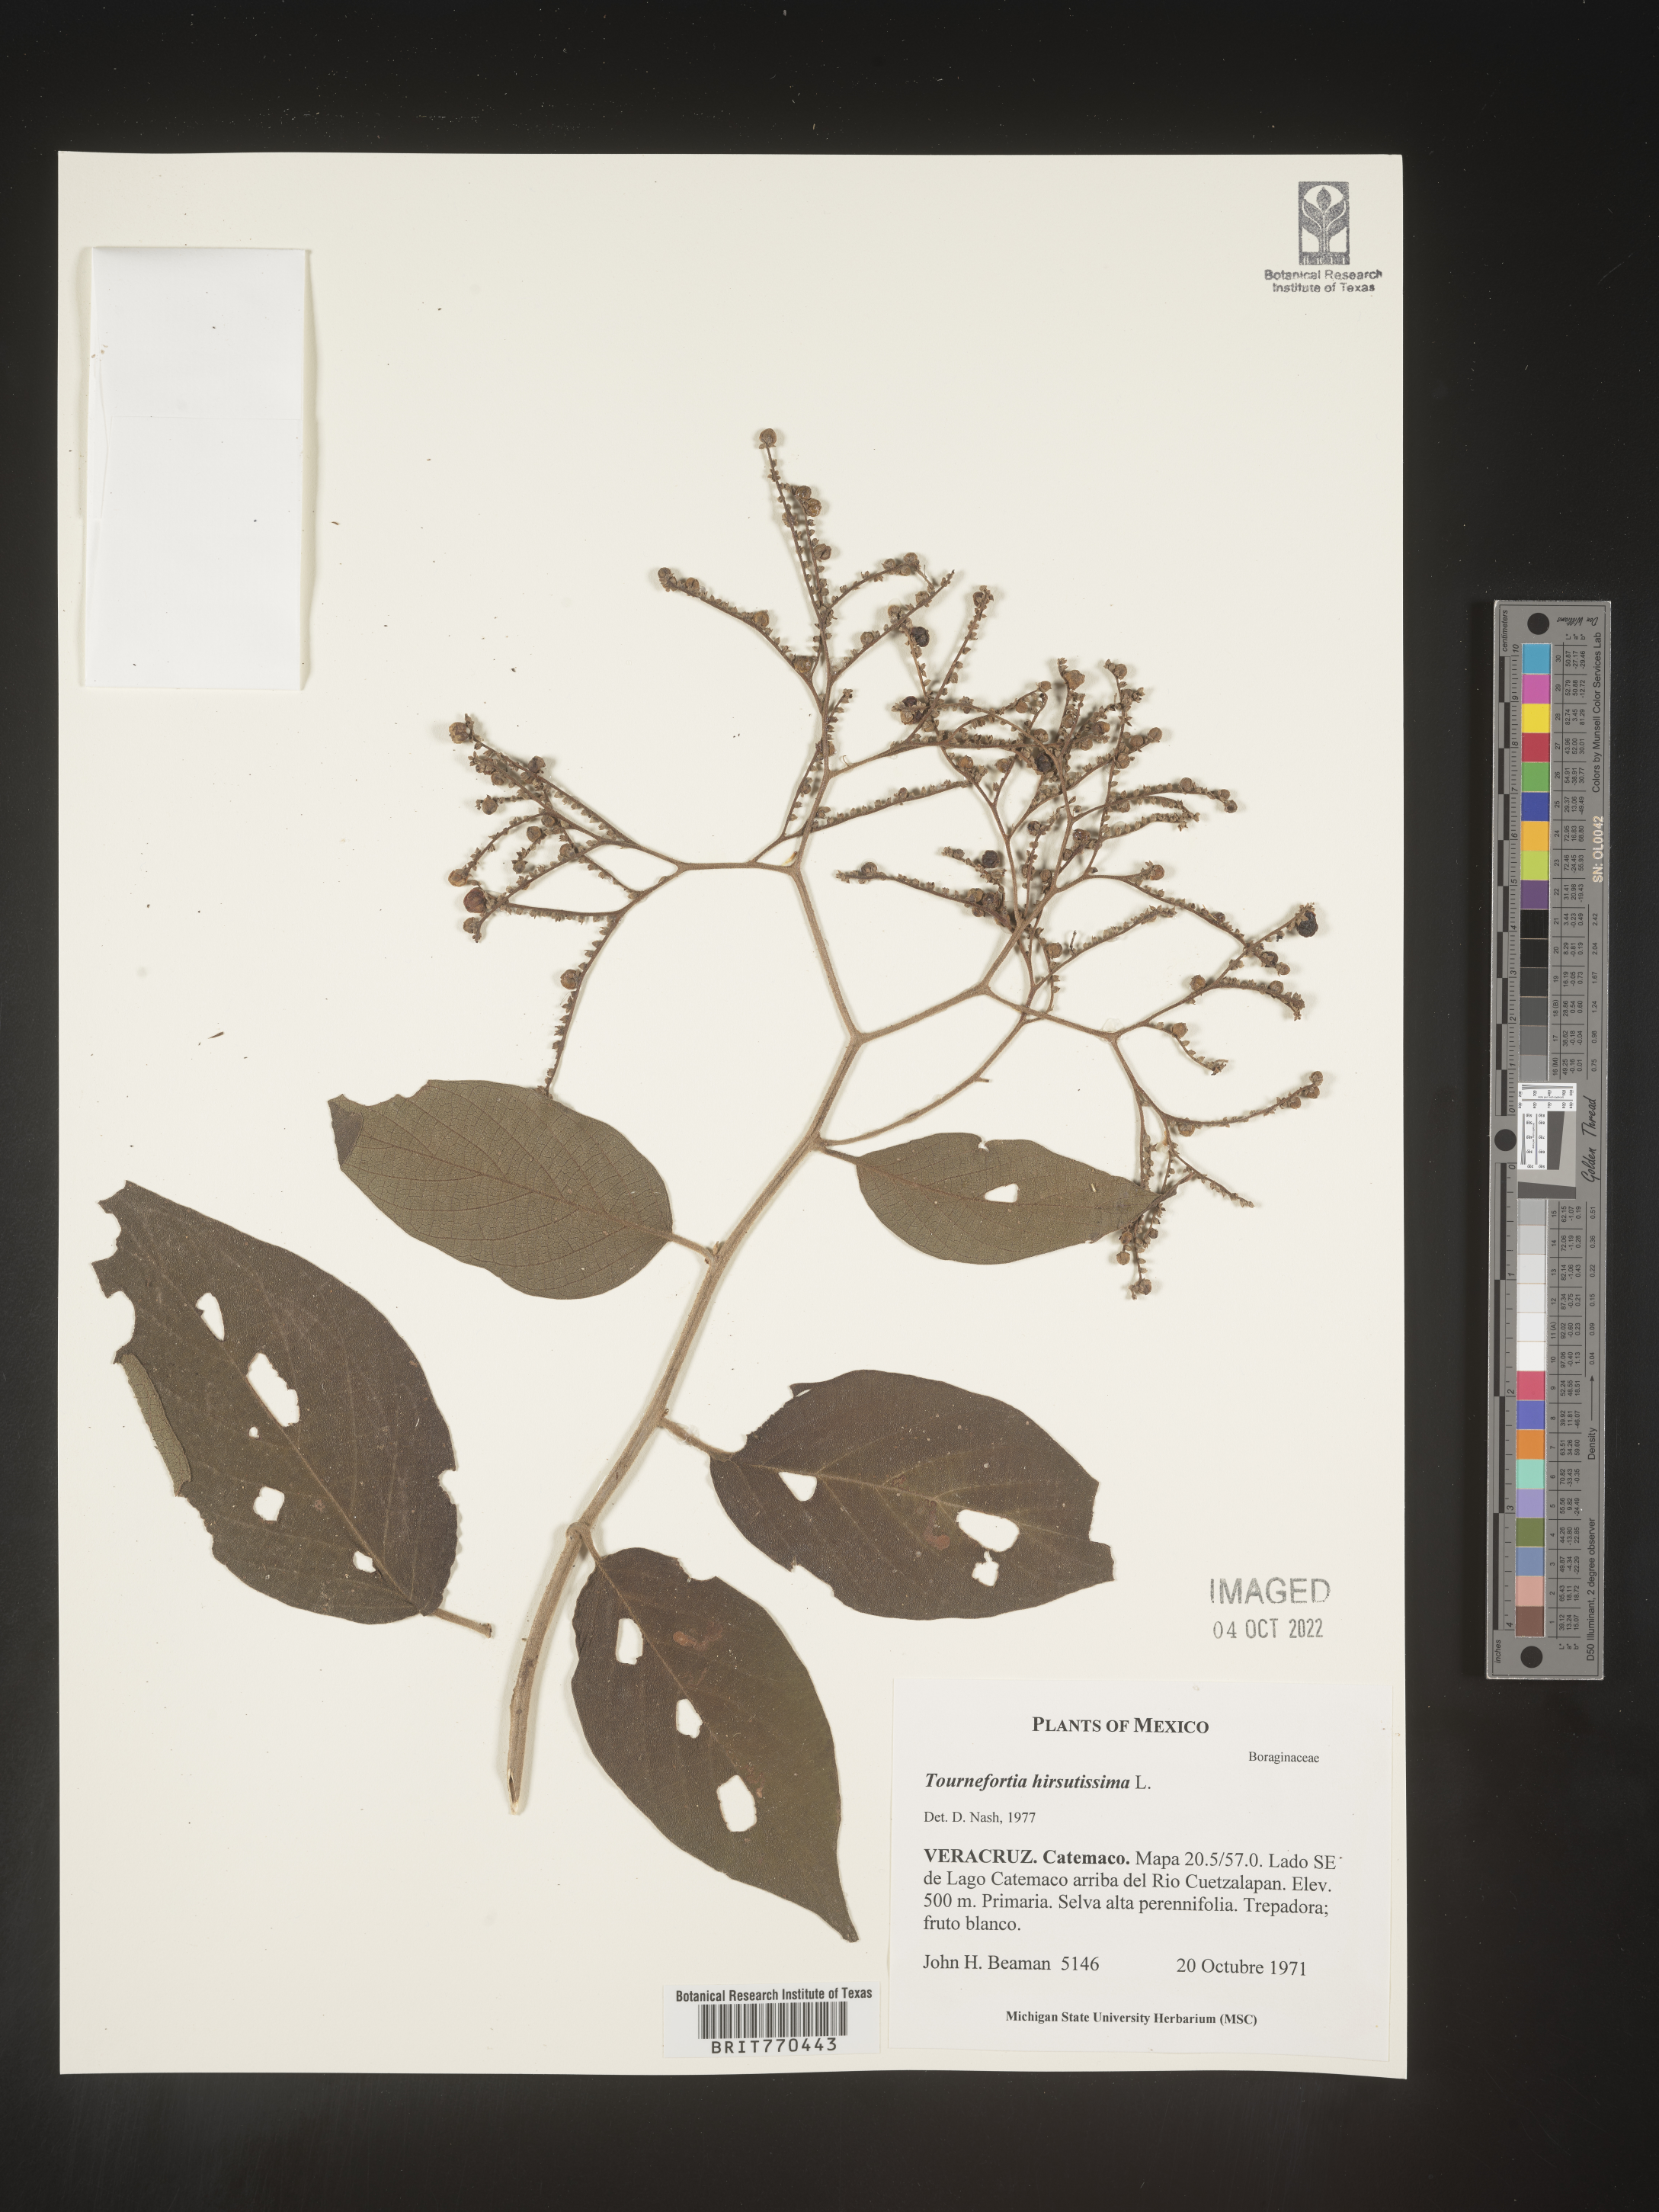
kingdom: Plantae
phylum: Tracheophyta
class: Magnoliopsida
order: Boraginales
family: Heliotropiaceae
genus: Tournefortia
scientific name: Tournefortia
